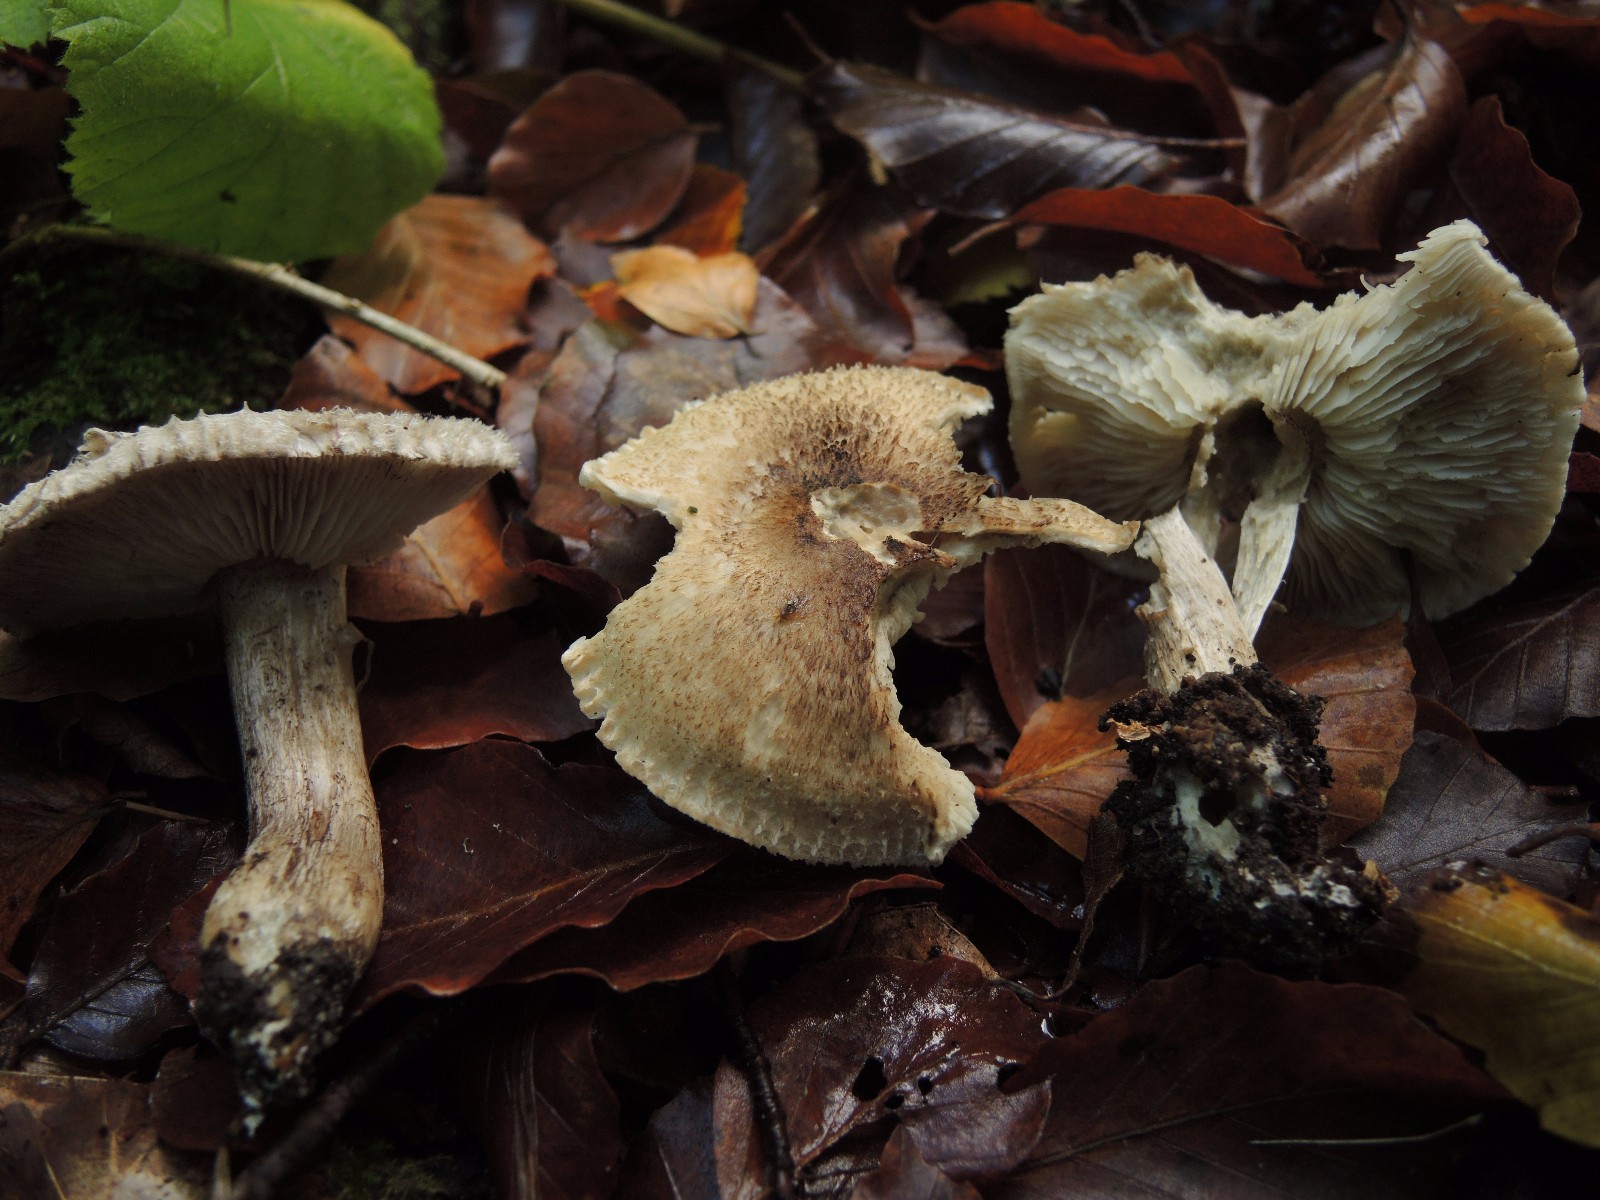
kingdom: Fungi
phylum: Basidiomycota
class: Agaricomycetes
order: Agaricales
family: Tricholomataceae
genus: Tricholoma
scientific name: Tricholoma atrosquamosum
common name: sortskællet ridderhat
